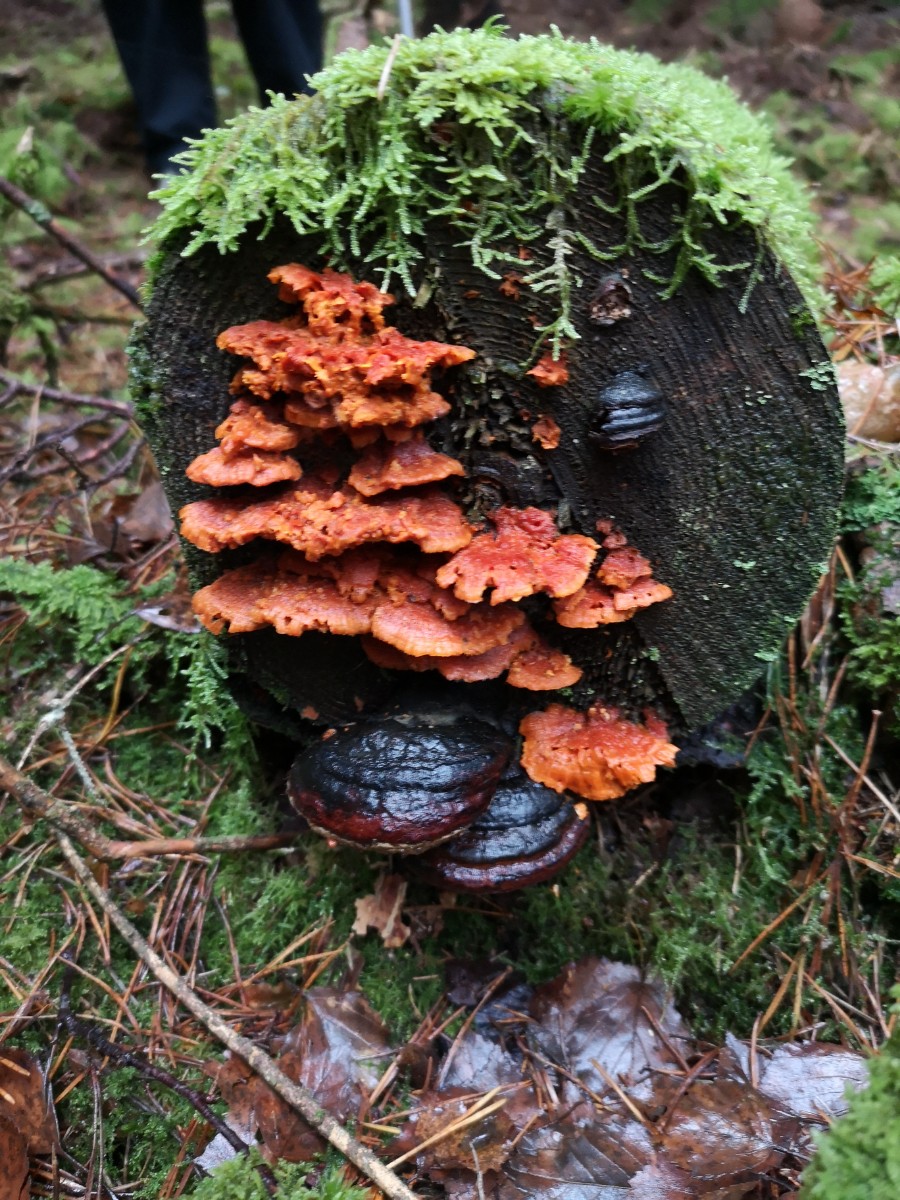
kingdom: Fungi
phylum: Basidiomycota
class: Agaricomycetes
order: Polyporales
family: Pycnoporellaceae
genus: Pycnoporellus
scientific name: Pycnoporellus fulgens
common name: flammeporesvamp
